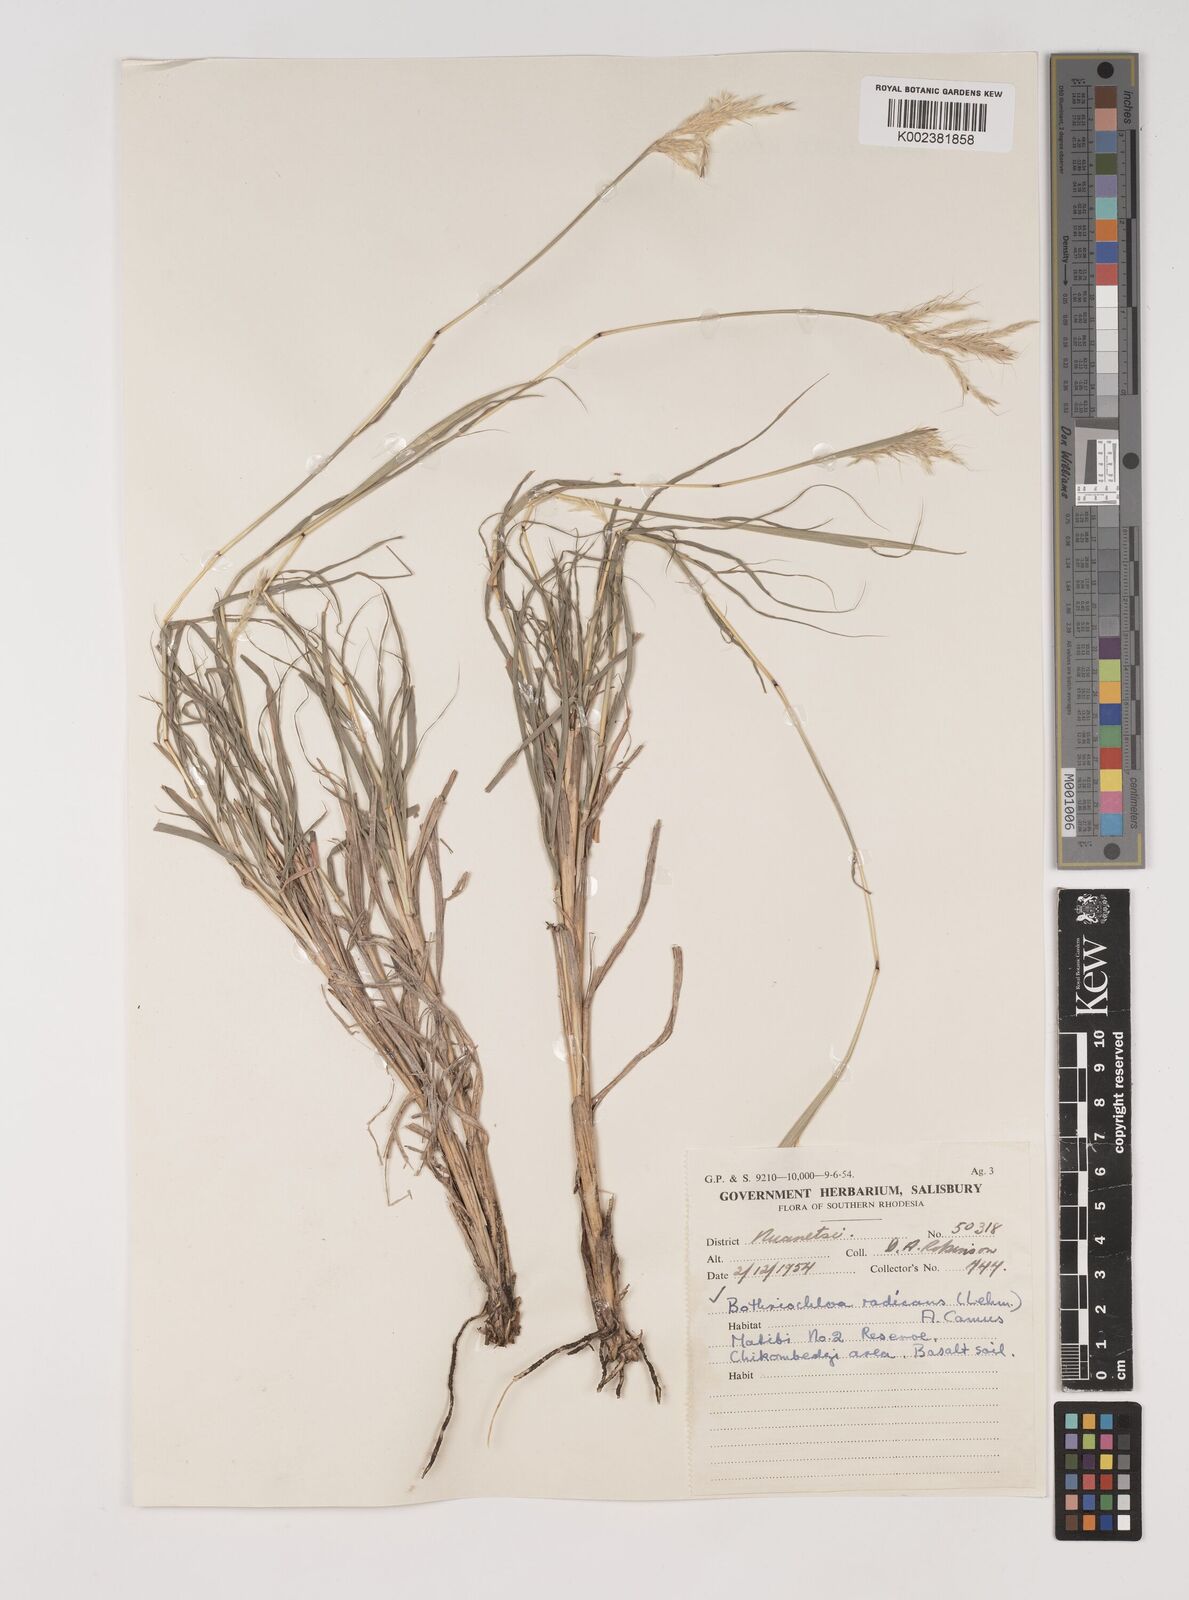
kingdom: Plantae
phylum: Tracheophyta
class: Liliopsida
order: Poales
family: Poaceae
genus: Bothriochloa
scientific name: Bothriochloa radicans
